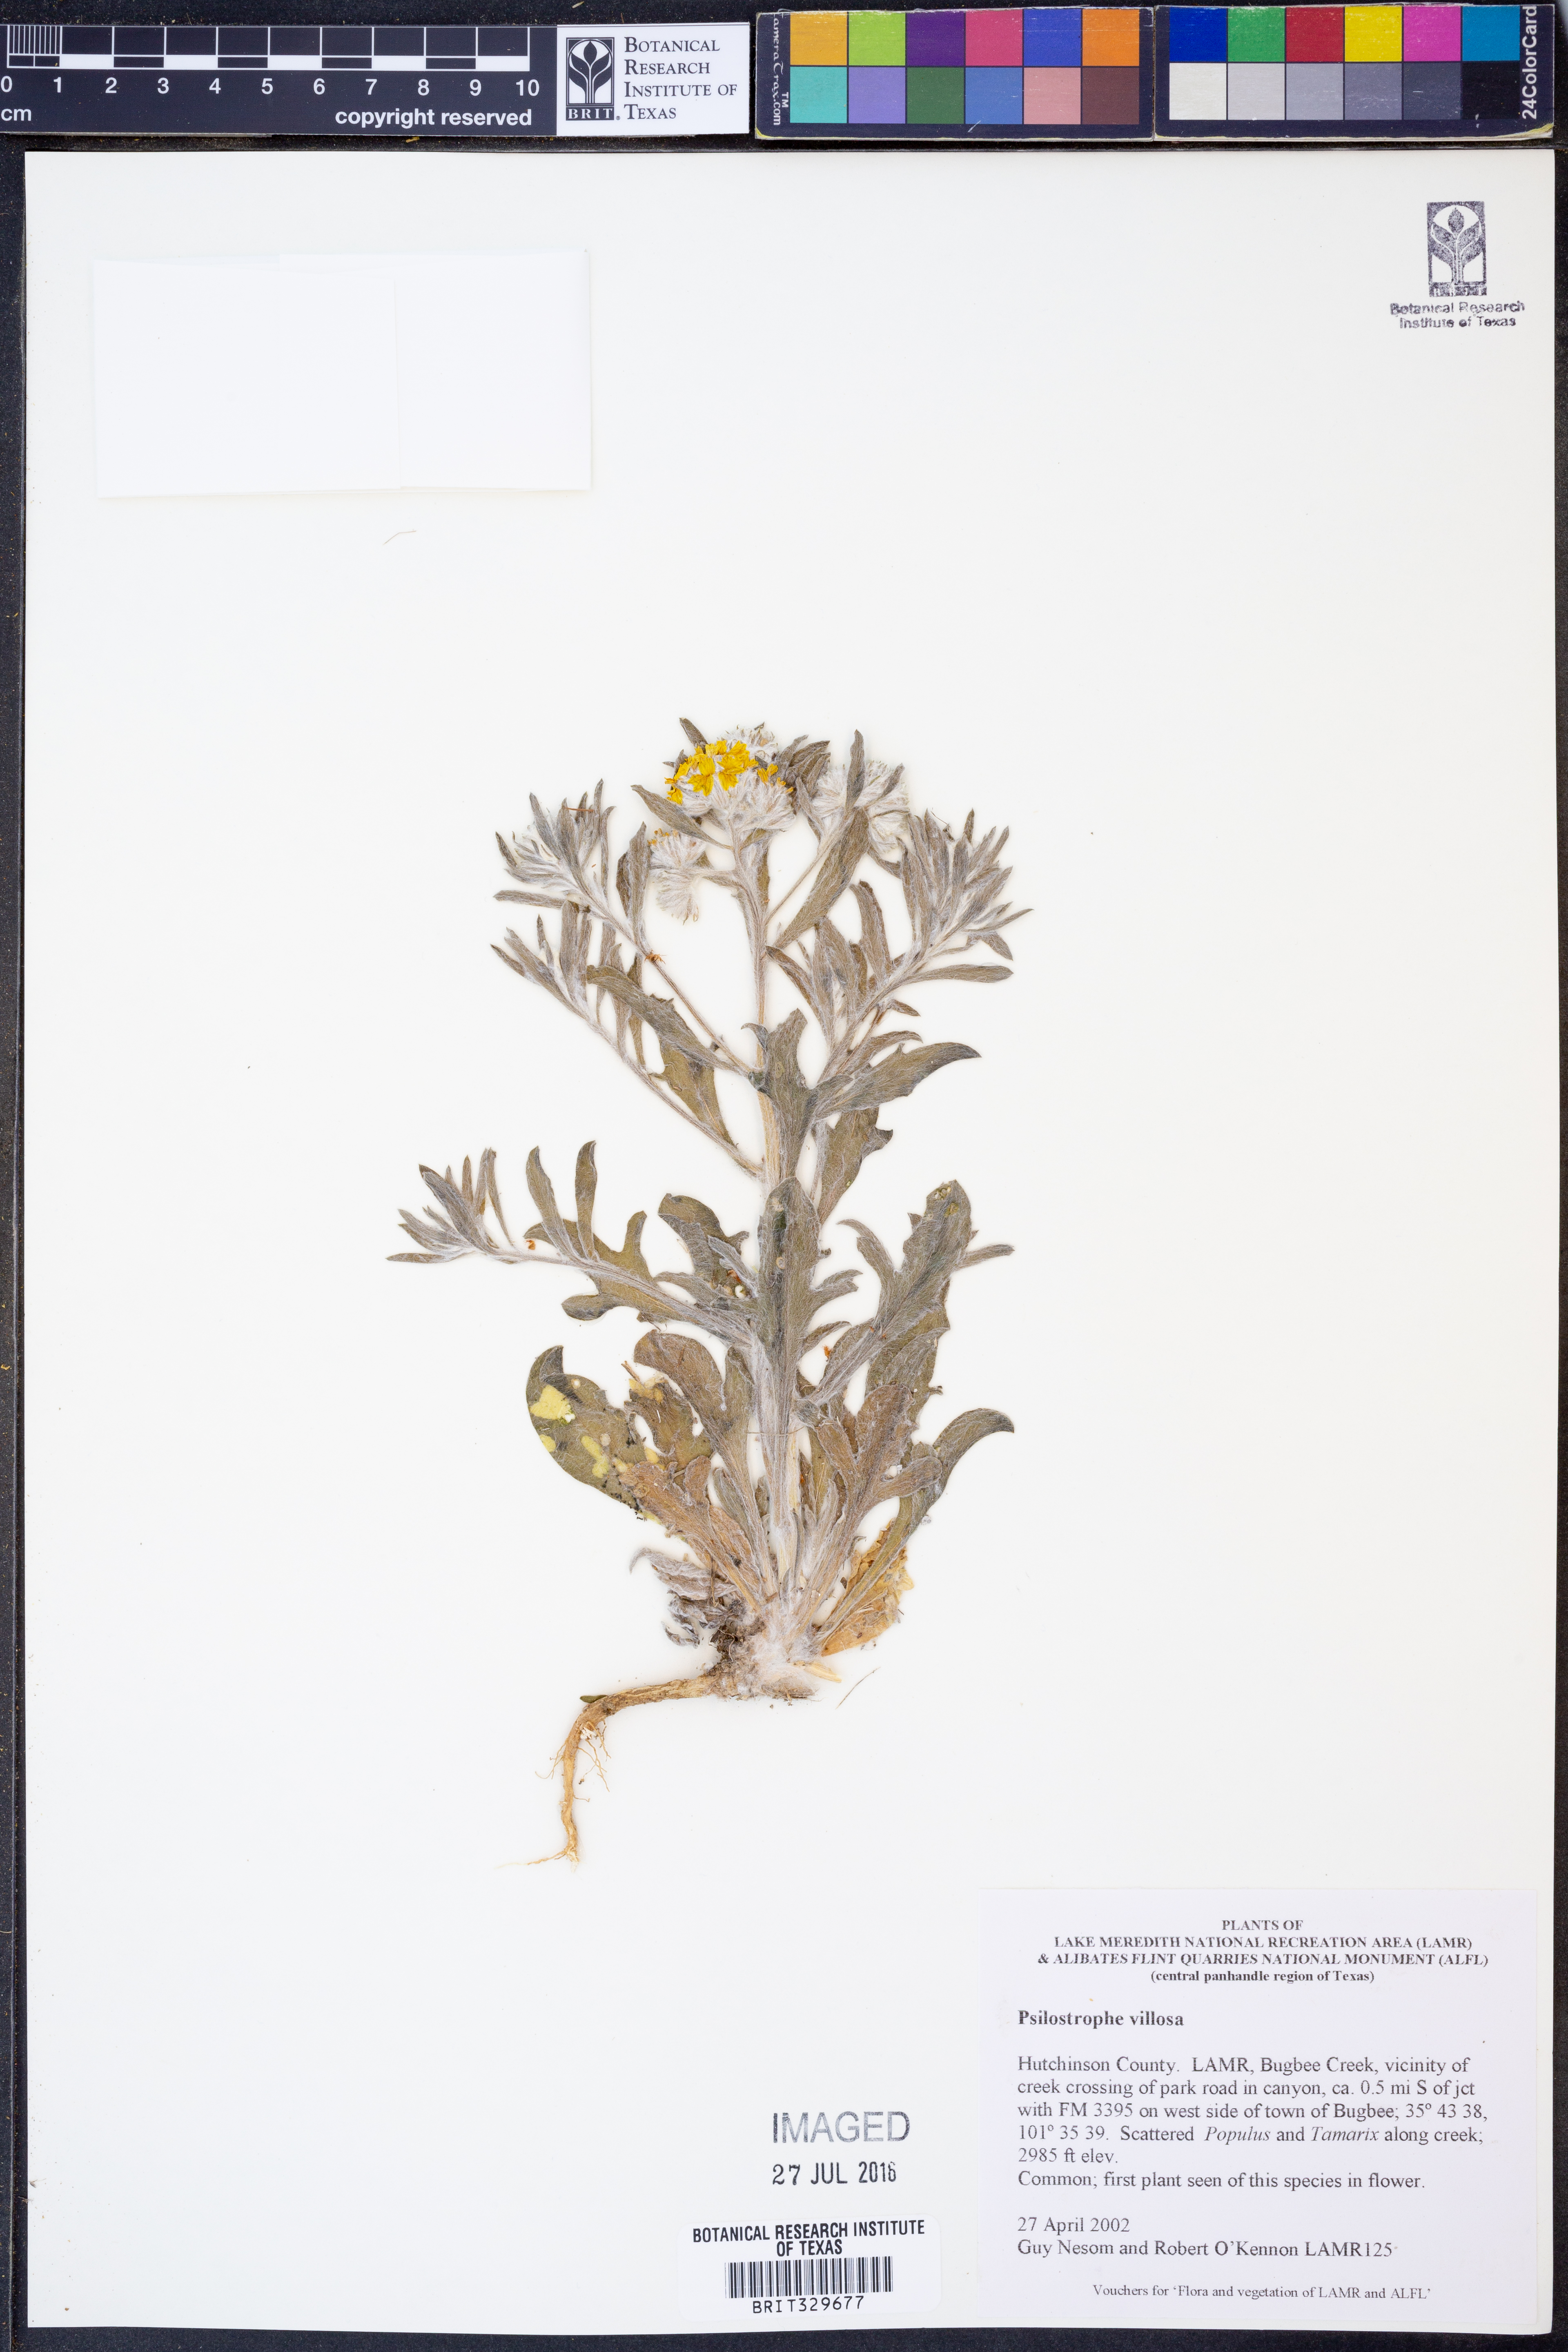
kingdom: Plantae
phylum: Tracheophyta
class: Magnoliopsida
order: Asterales
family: Asteraceae
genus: Psilostrophe
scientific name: Psilostrophe villosa
